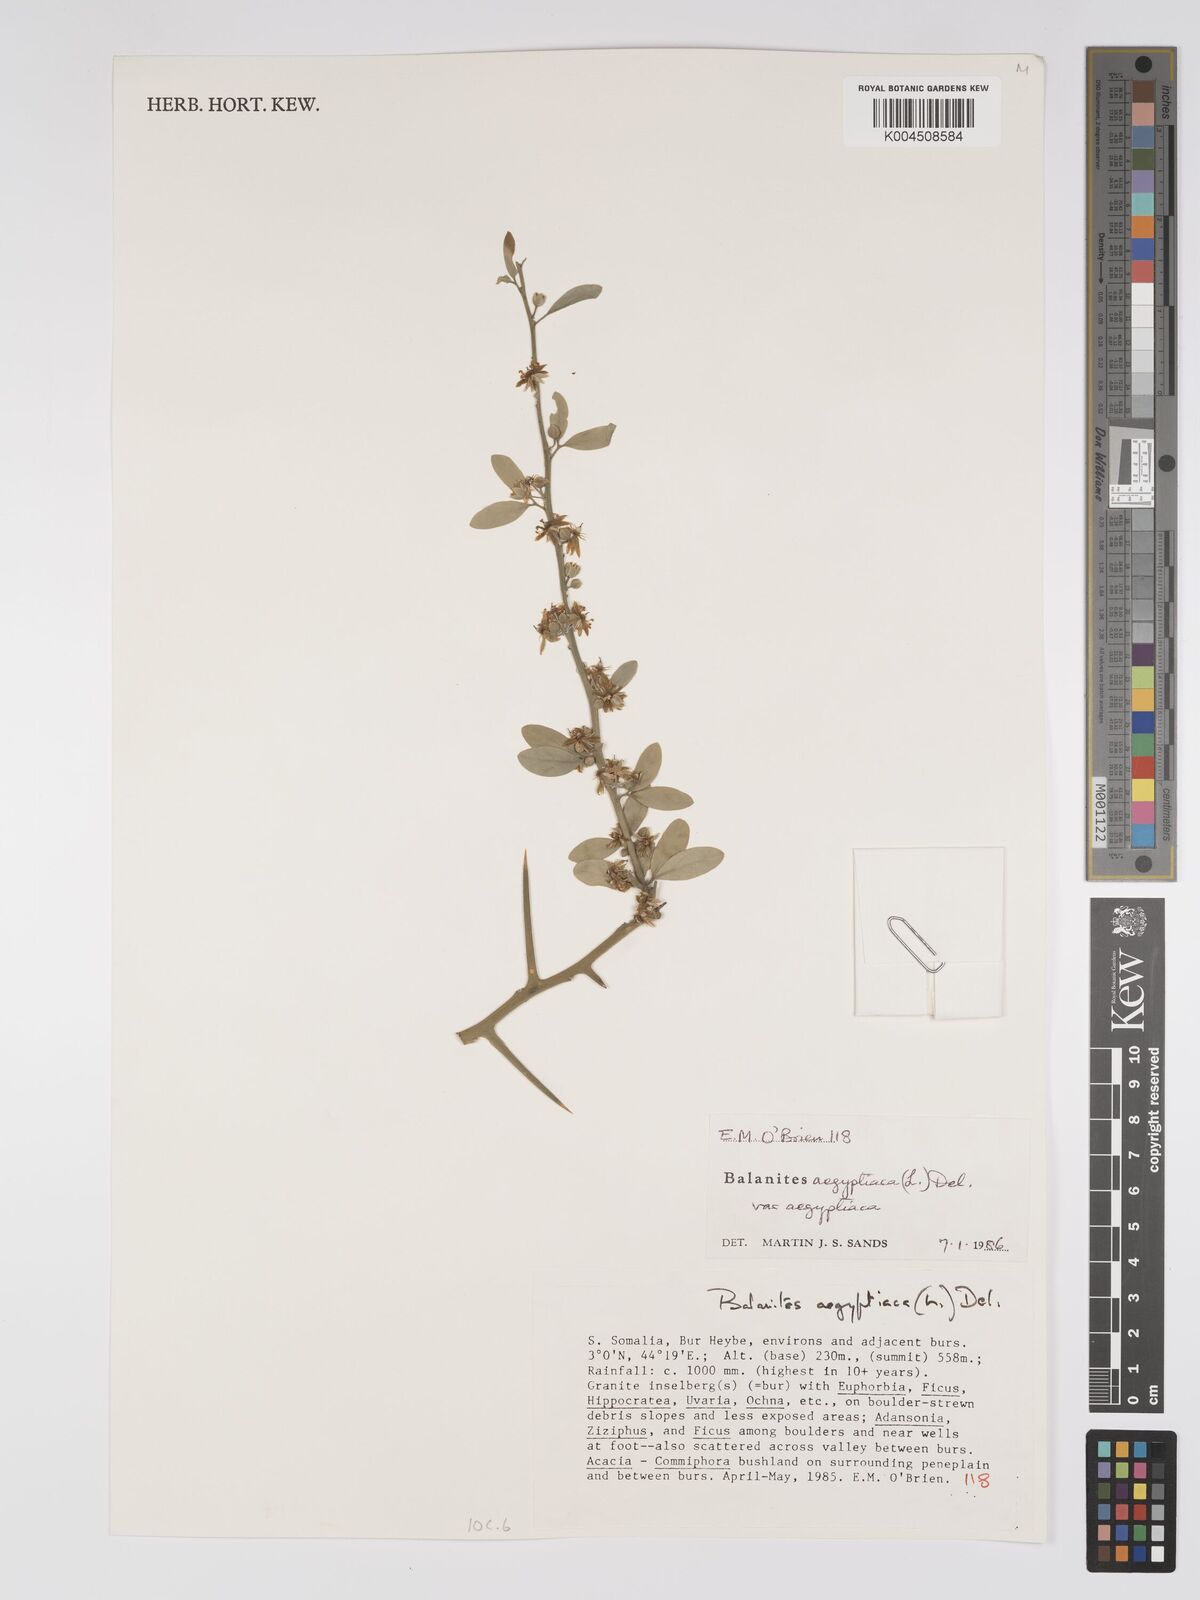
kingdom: Plantae
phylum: Tracheophyta
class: Magnoliopsida
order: Zygophyllales
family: Zygophyllaceae
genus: Balanites
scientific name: Balanites aegyptiaca
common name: Balanites
